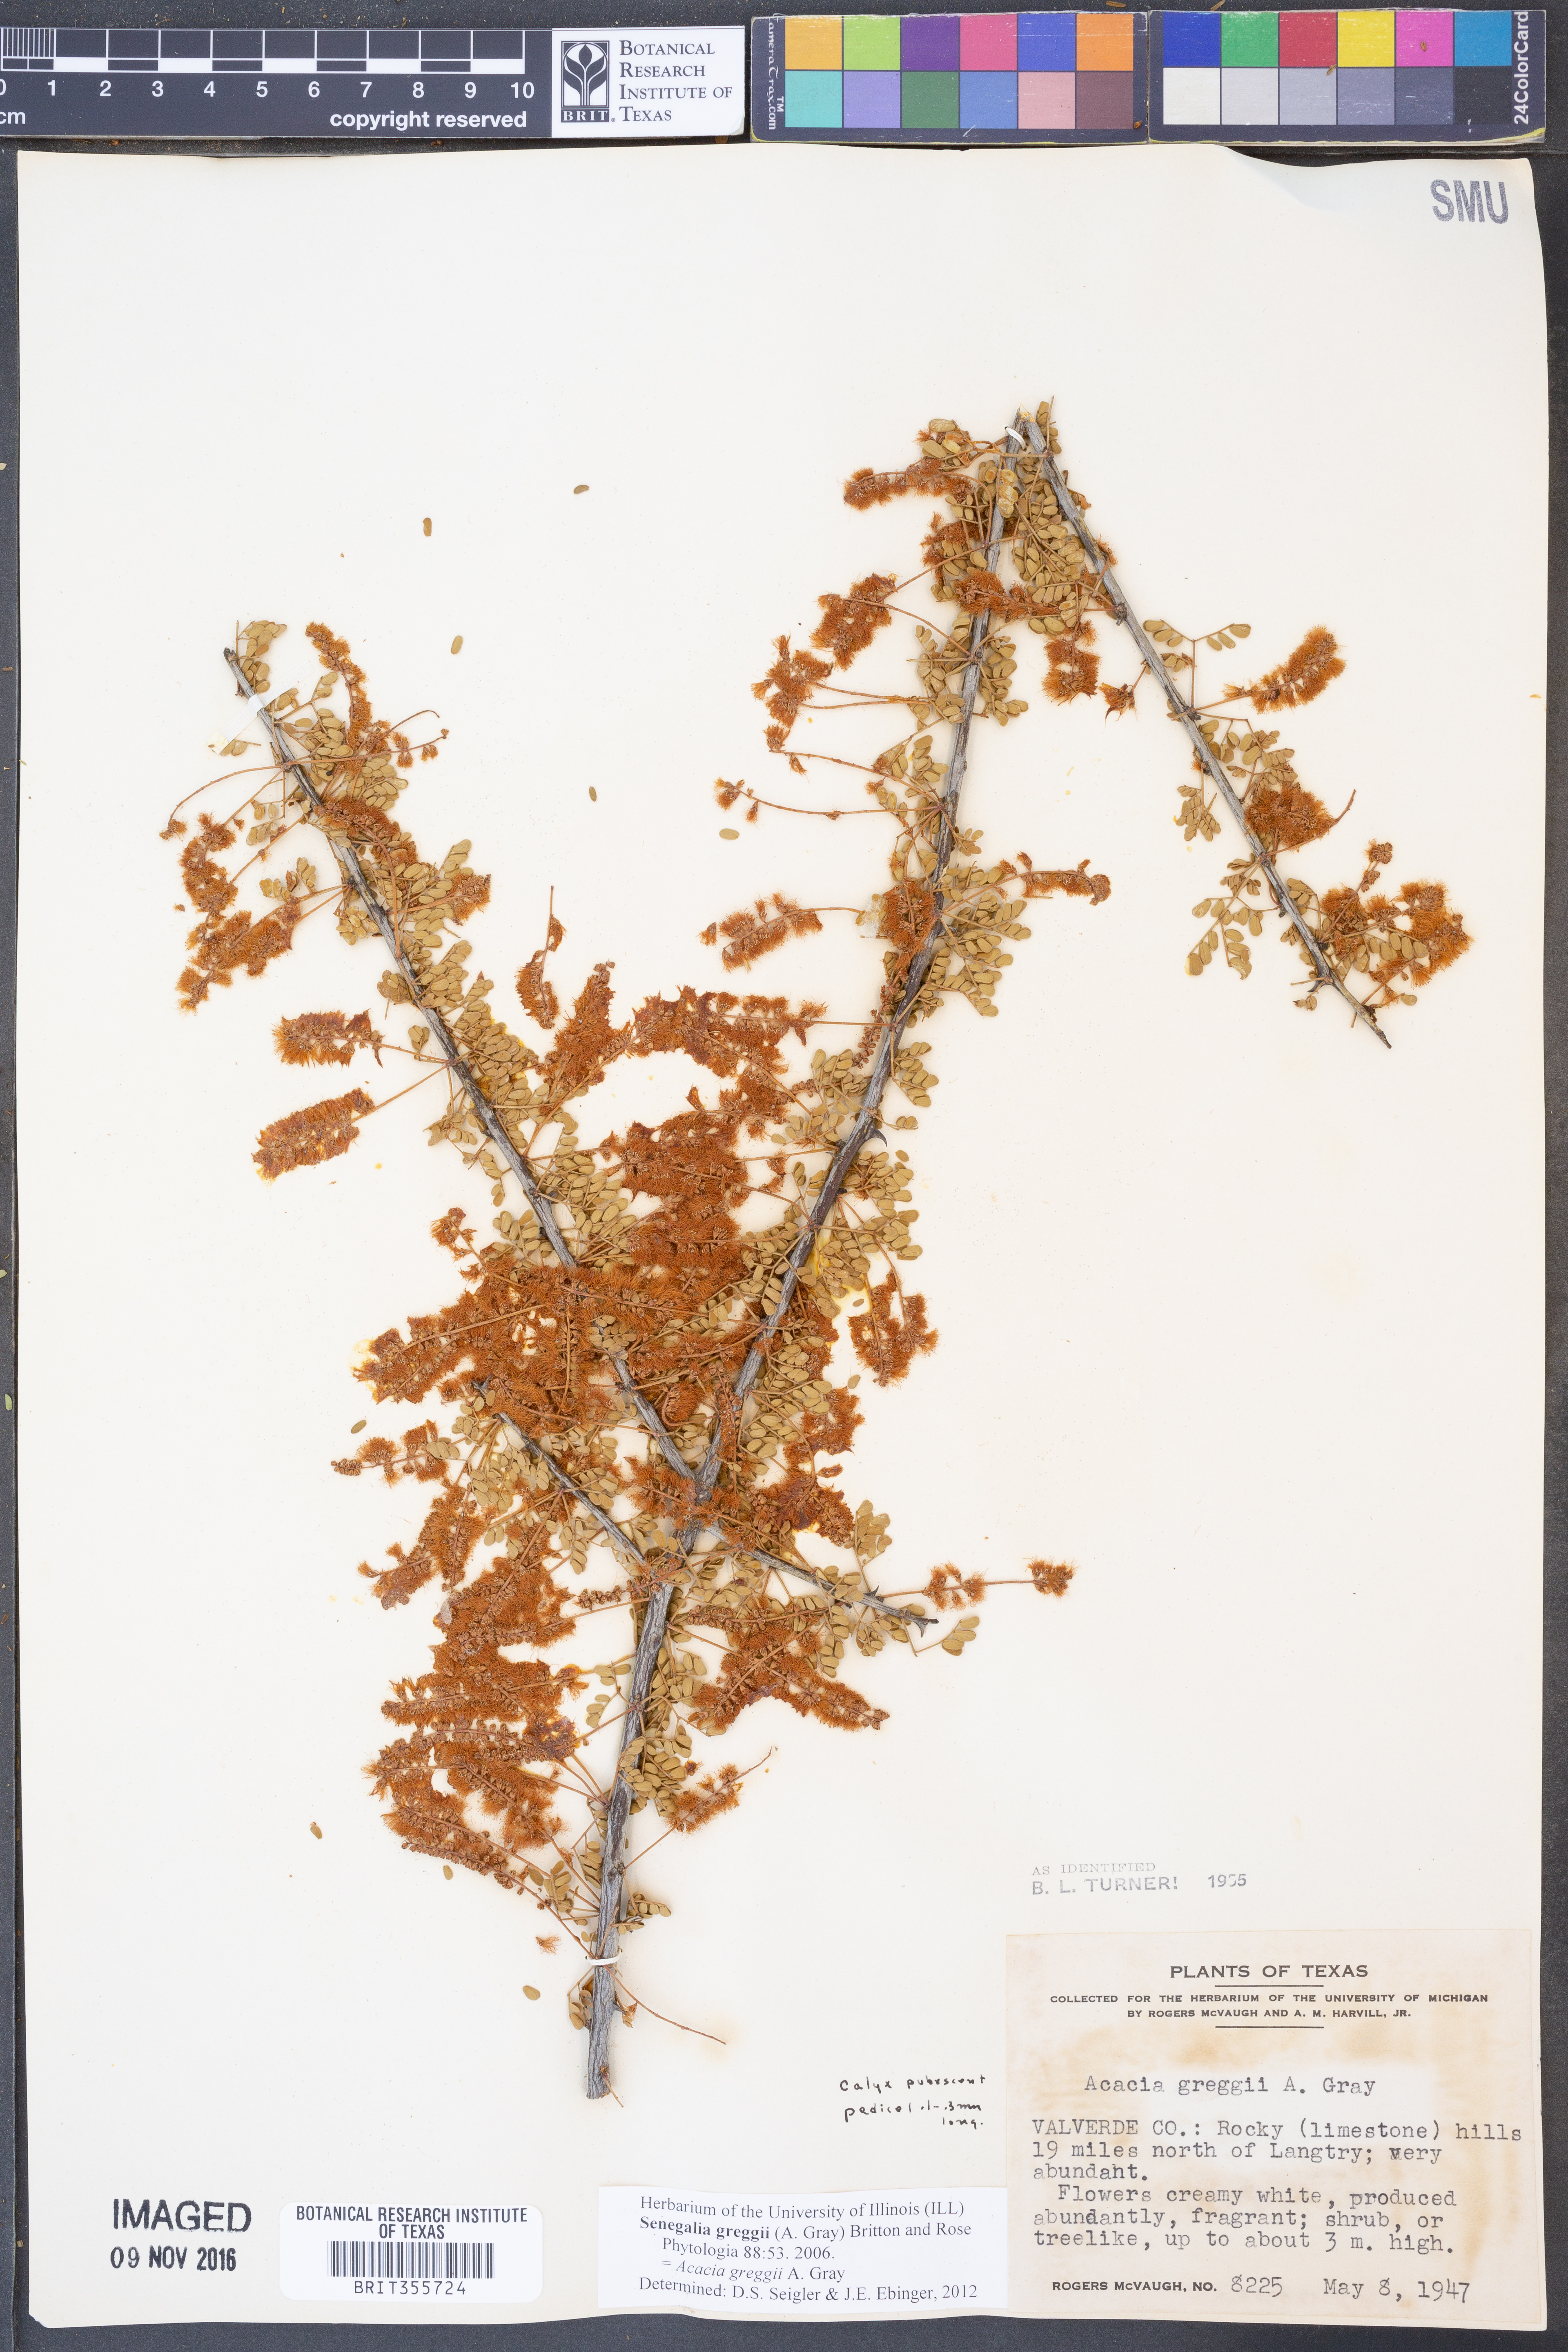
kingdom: Plantae
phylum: Tracheophyta
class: Magnoliopsida
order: Fabales
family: Fabaceae
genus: Senegalia
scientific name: Senegalia greggii
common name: Texas-mimosa
